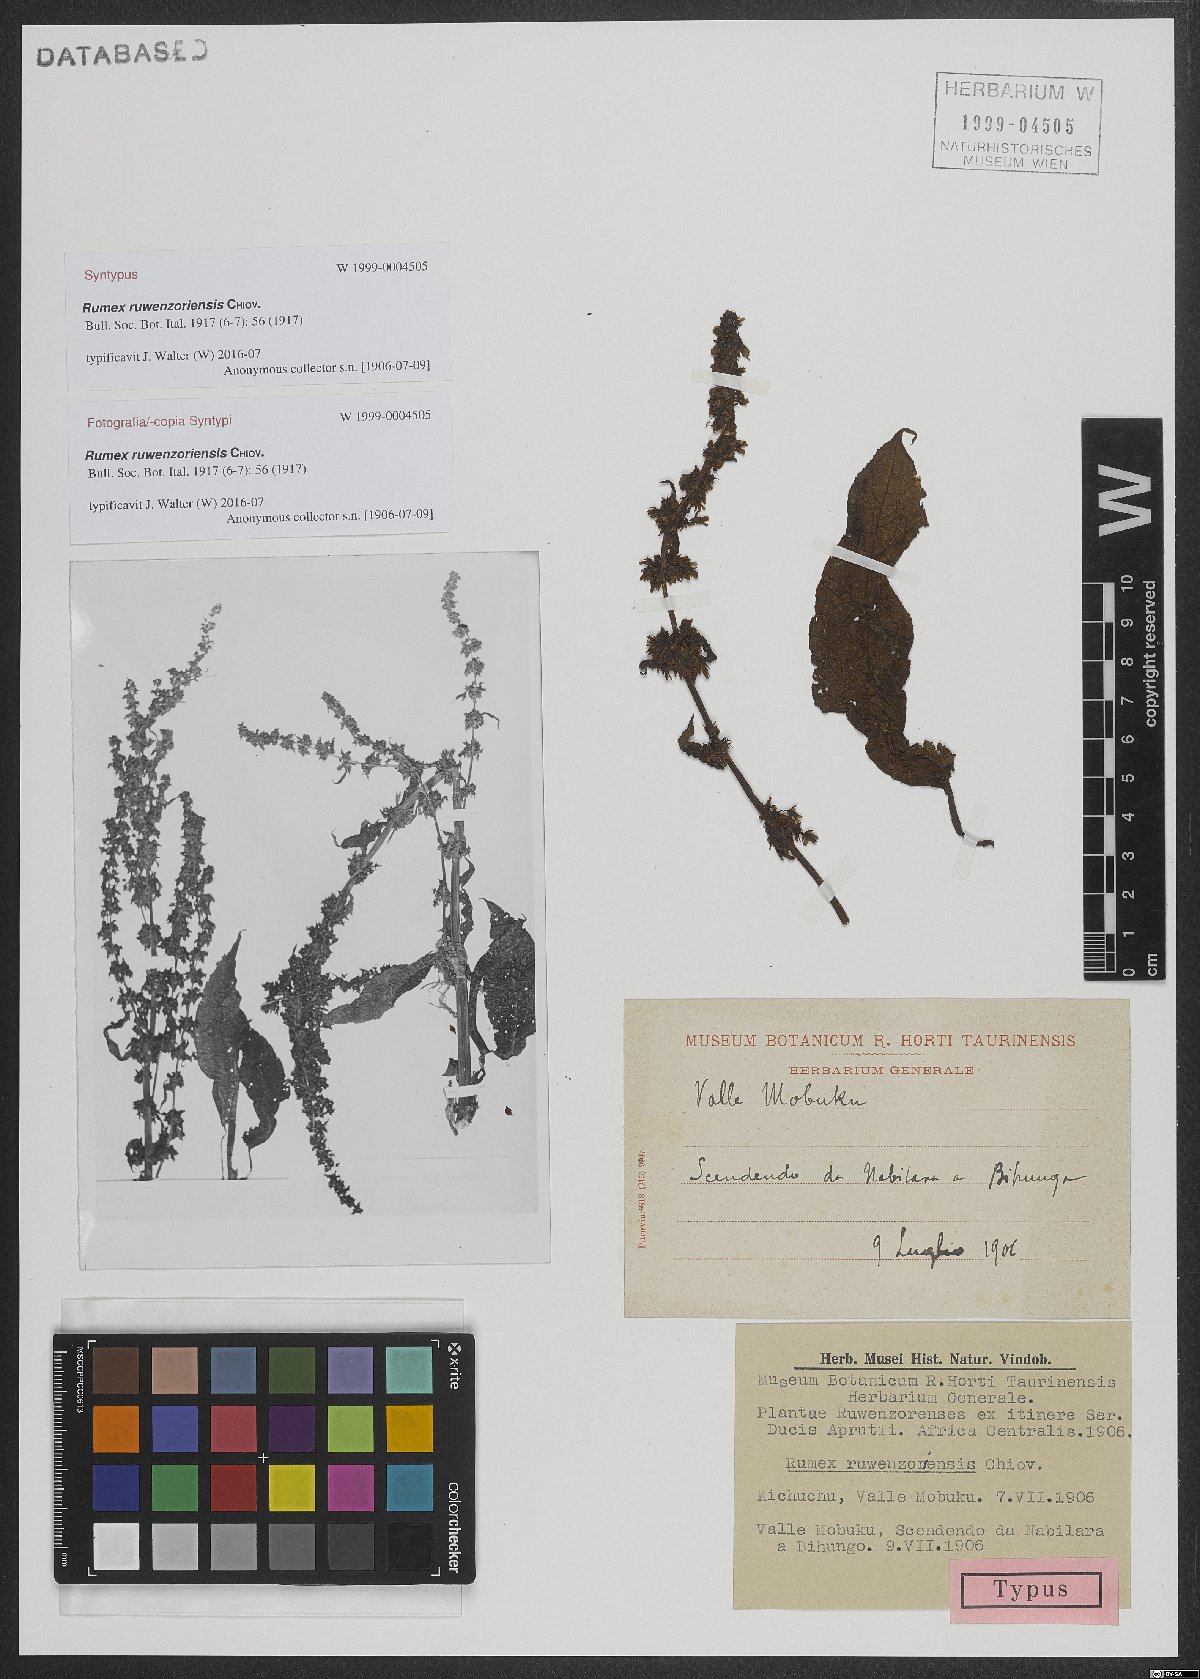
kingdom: Plantae
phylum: Tracheophyta
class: Magnoliopsida
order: Caryophyllales
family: Polygonaceae
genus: Rumex
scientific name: Rumex ruwenzoriensis
